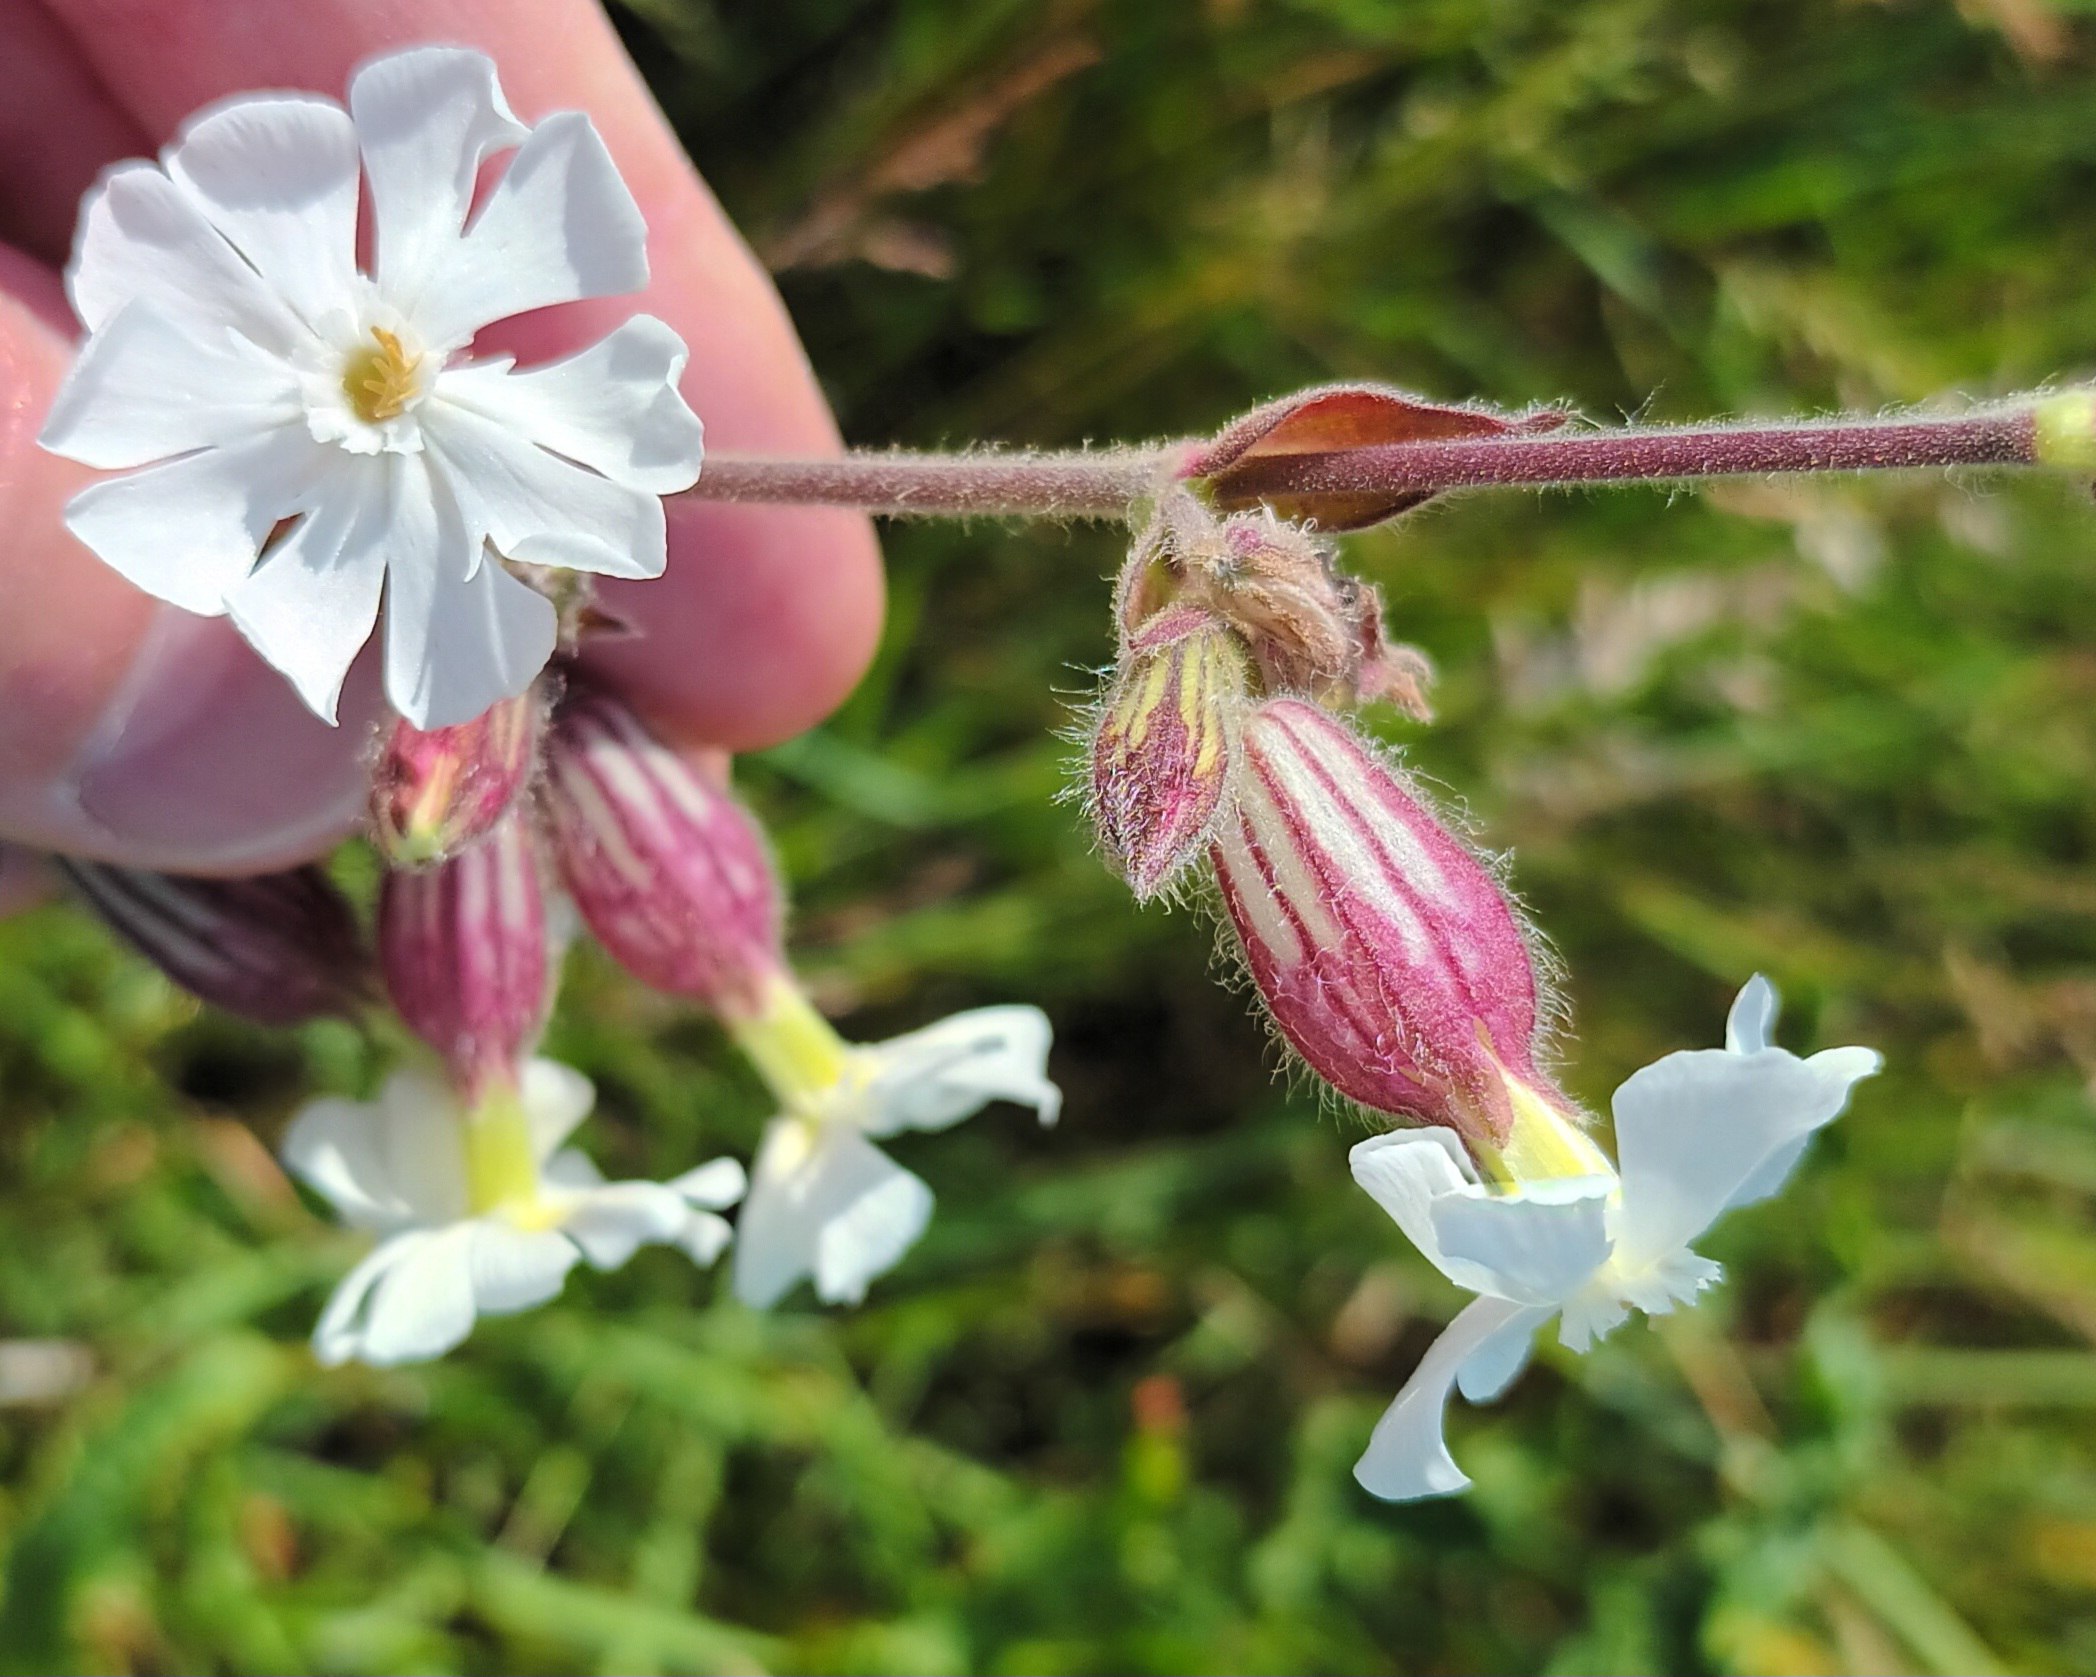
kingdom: Plantae
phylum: Tracheophyta
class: Magnoliopsida
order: Caryophyllales
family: Caryophyllaceae
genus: Silene
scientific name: Silene latifolia
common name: Aftenpragtstjerne
